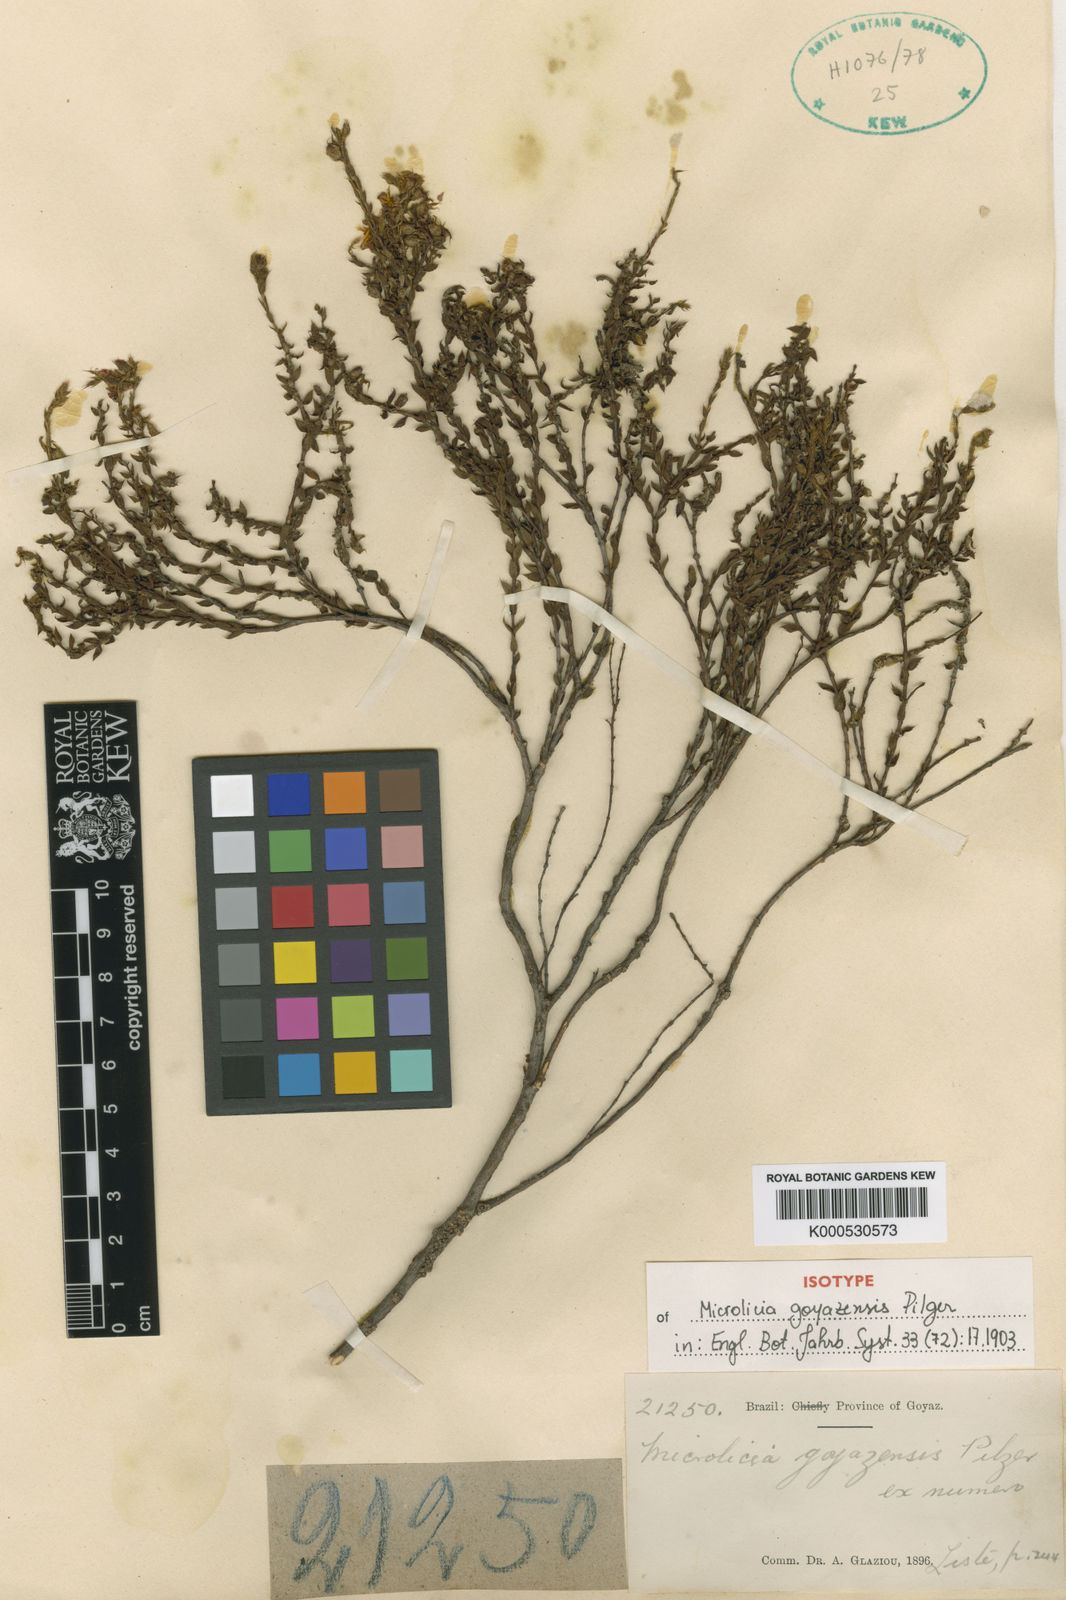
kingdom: Plantae
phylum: Tracheophyta
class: Magnoliopsida
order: Myrtales
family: Melastomataceae
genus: Microlicia
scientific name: Microlicia
